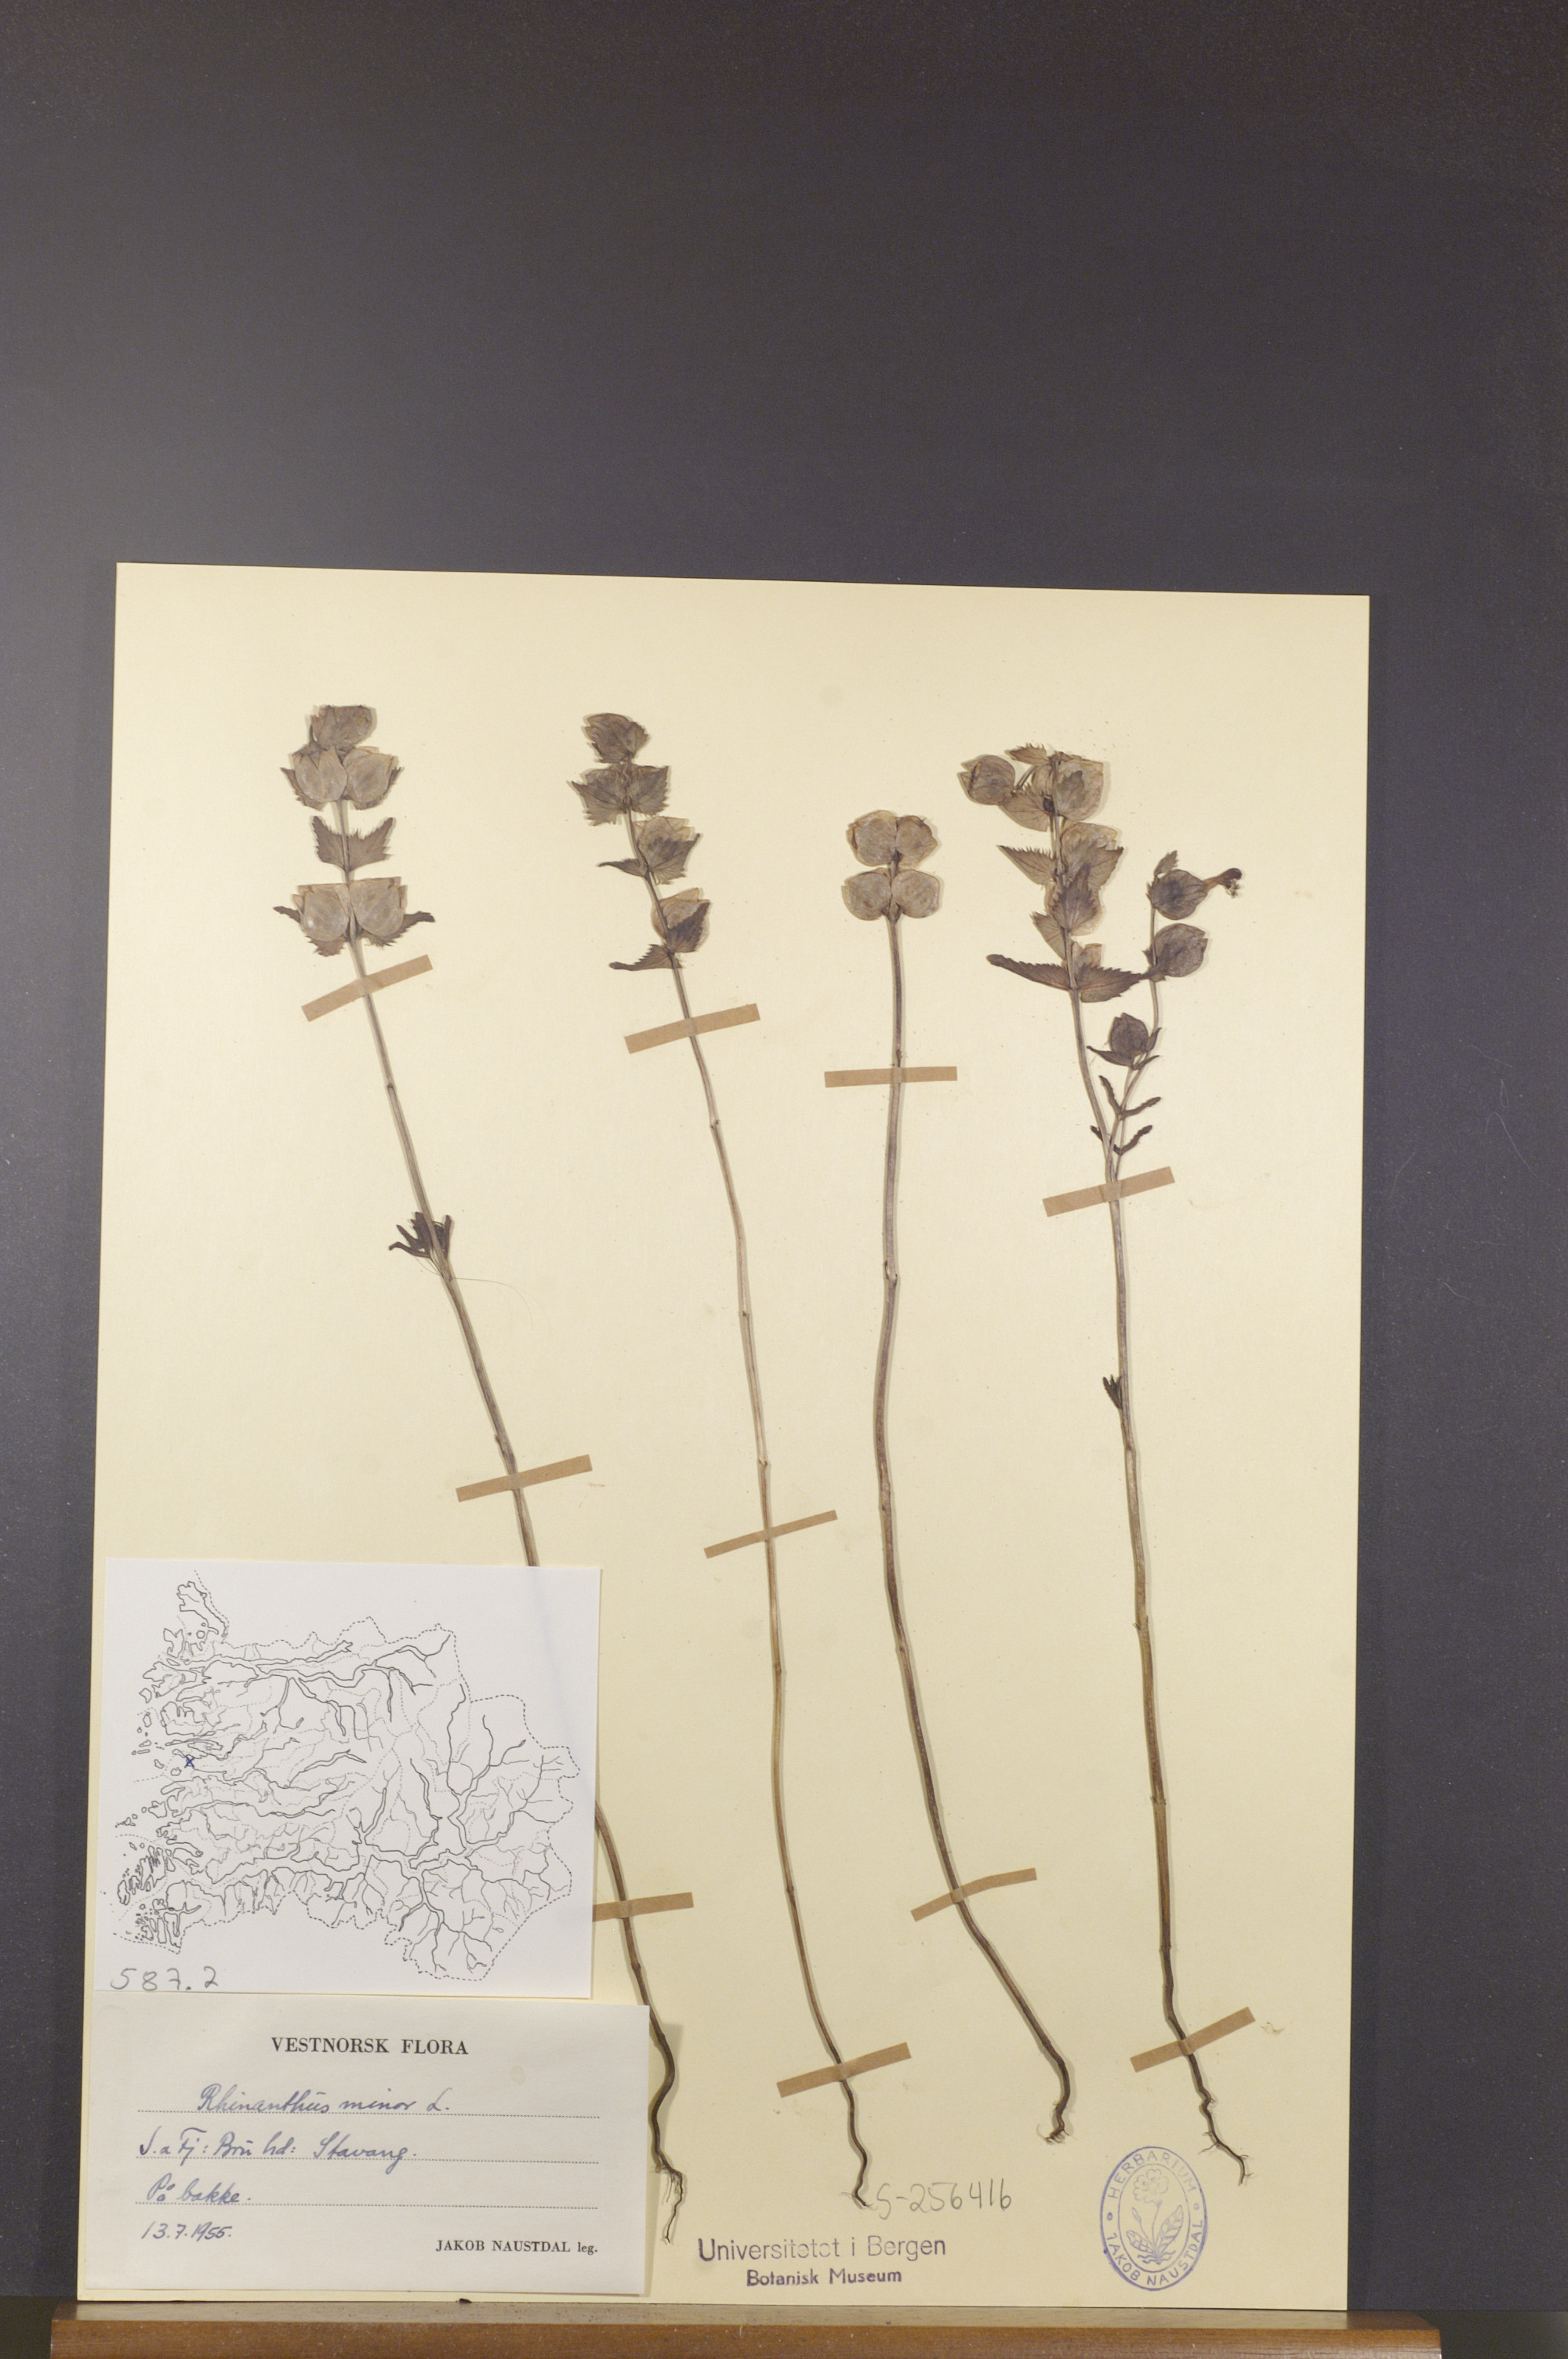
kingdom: Plantae
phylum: Tracheophyta
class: Magnoliopsida
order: Lamiales
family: Orobanchaceae
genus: Rhinanthus
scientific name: Rhinanthus minor
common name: Yellow-rattle
